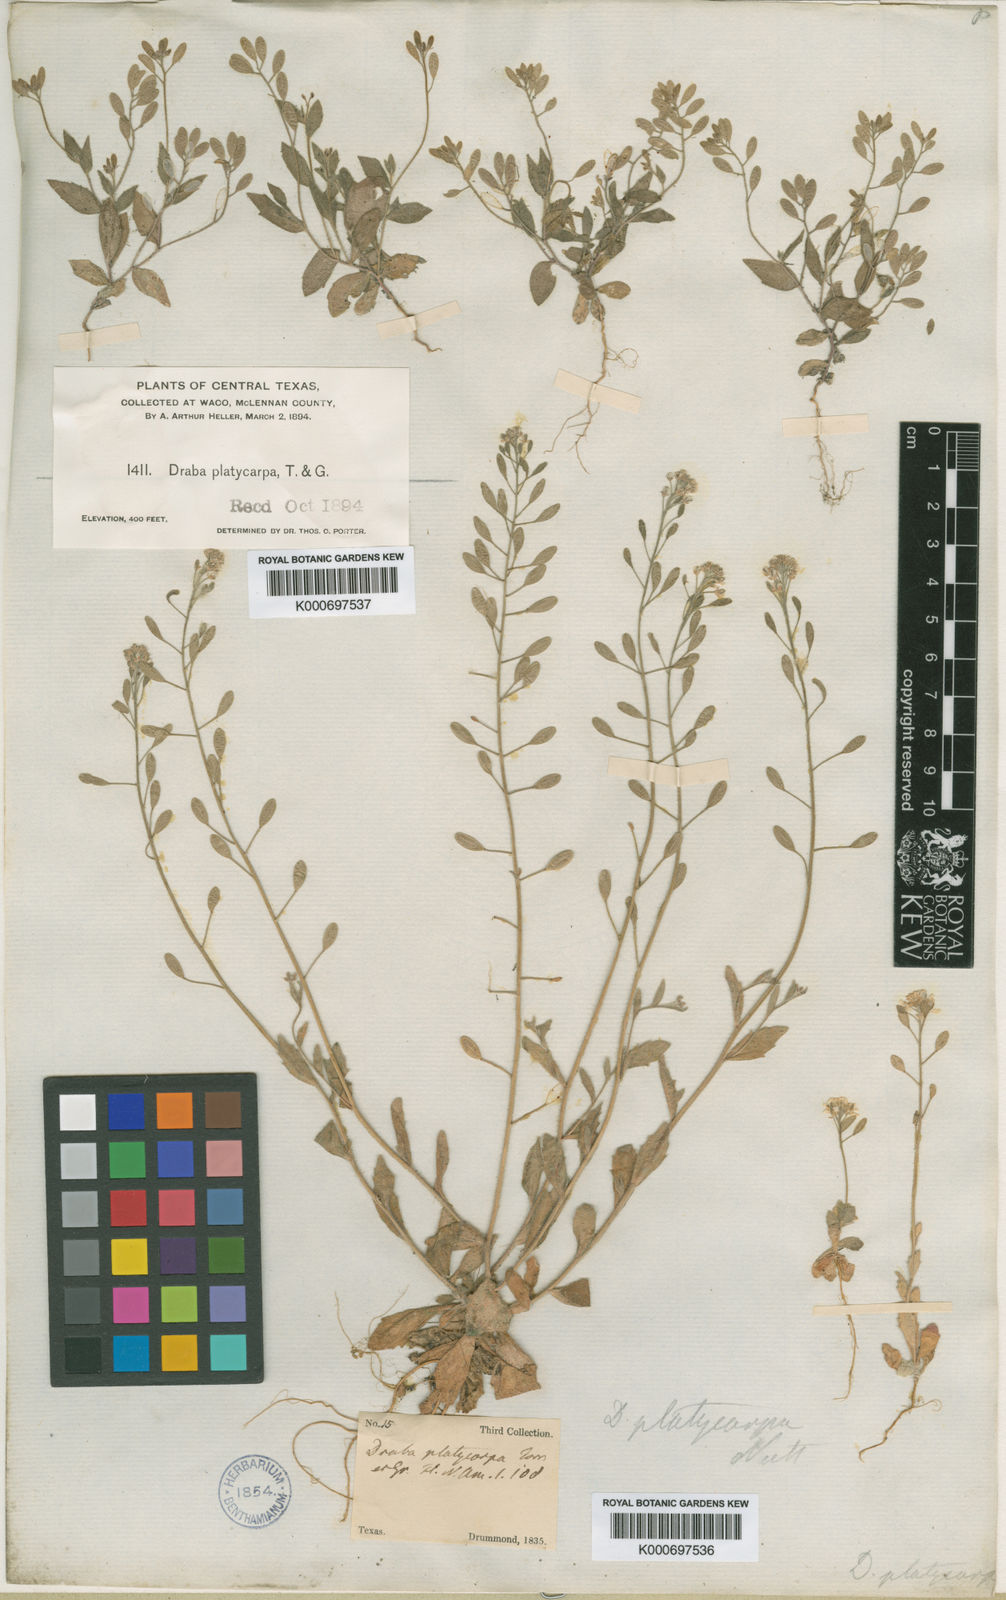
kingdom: Plantae
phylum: Tracheophyta
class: Magnoliopsida
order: Brassicales
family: Brassicaceae
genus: Tomostima
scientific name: Tomostima platycarpa
